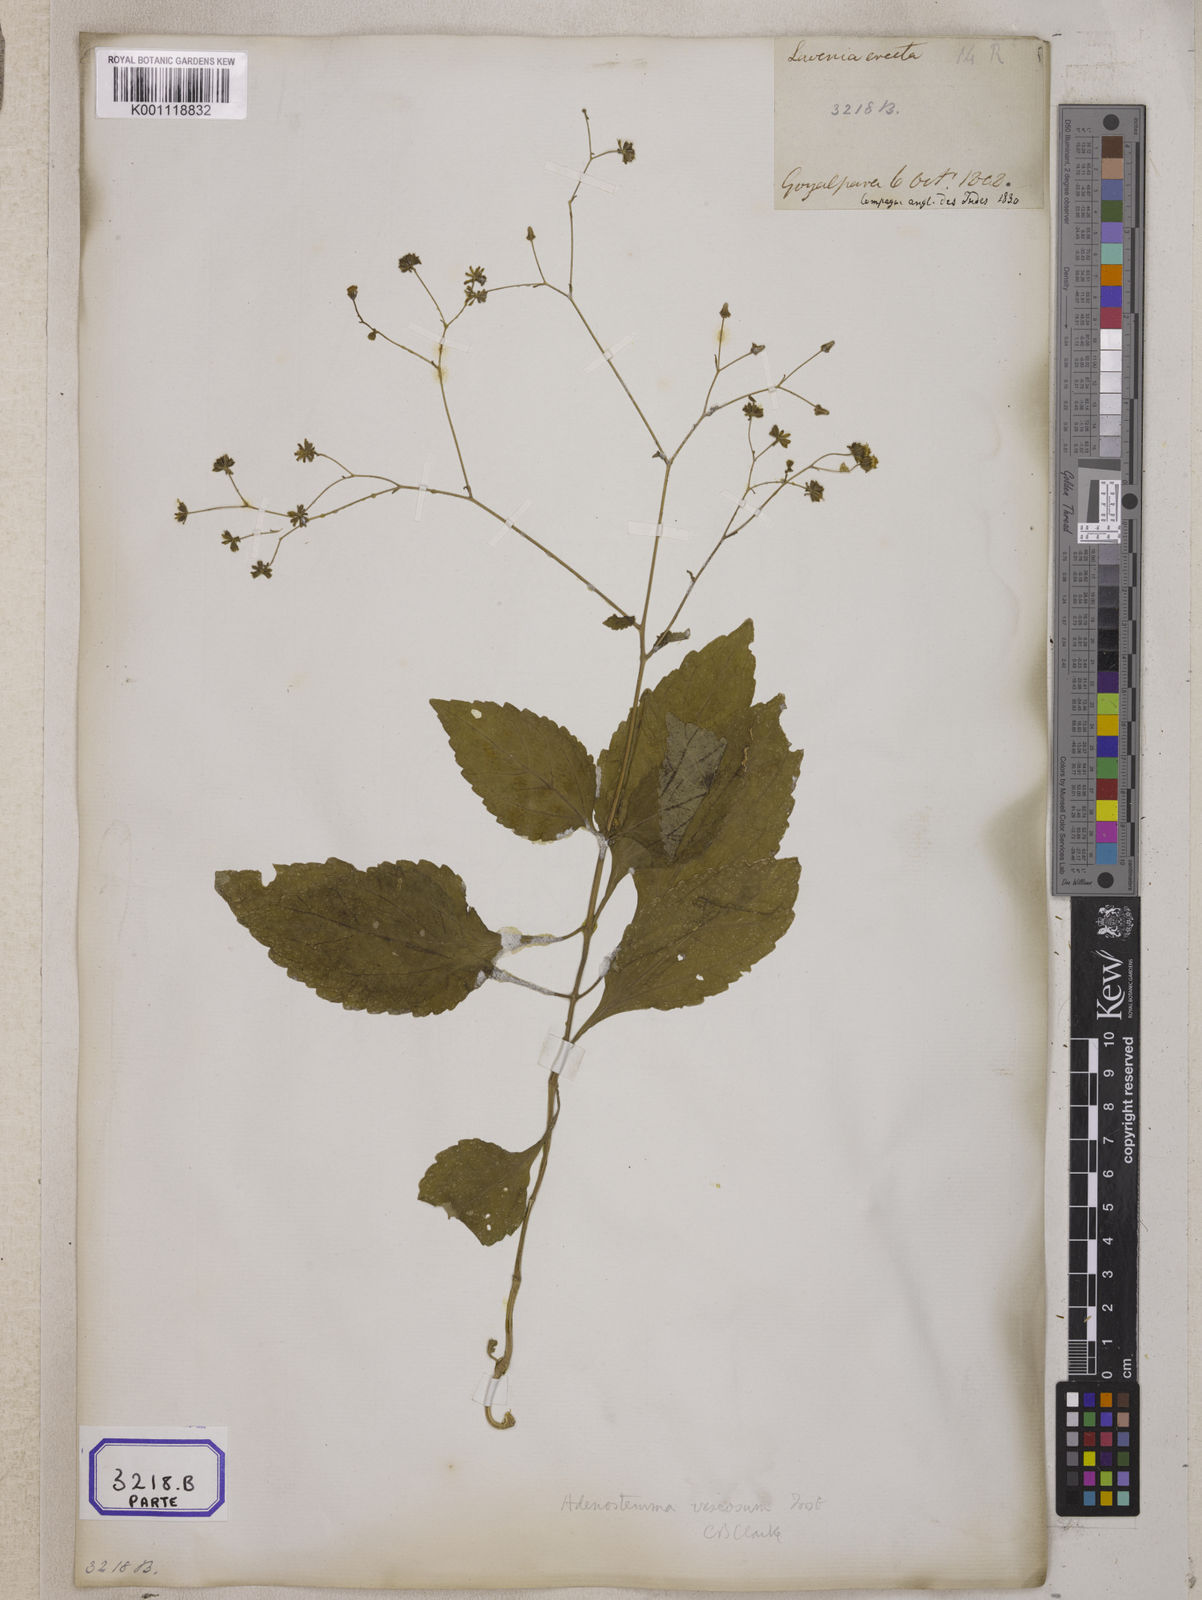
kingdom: Plantae
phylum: Tracheophyta
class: Magnoliopsida
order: Asterales
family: Asteraceae
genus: Adenostemma
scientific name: Adenostemma viscosum
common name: Dungweed
